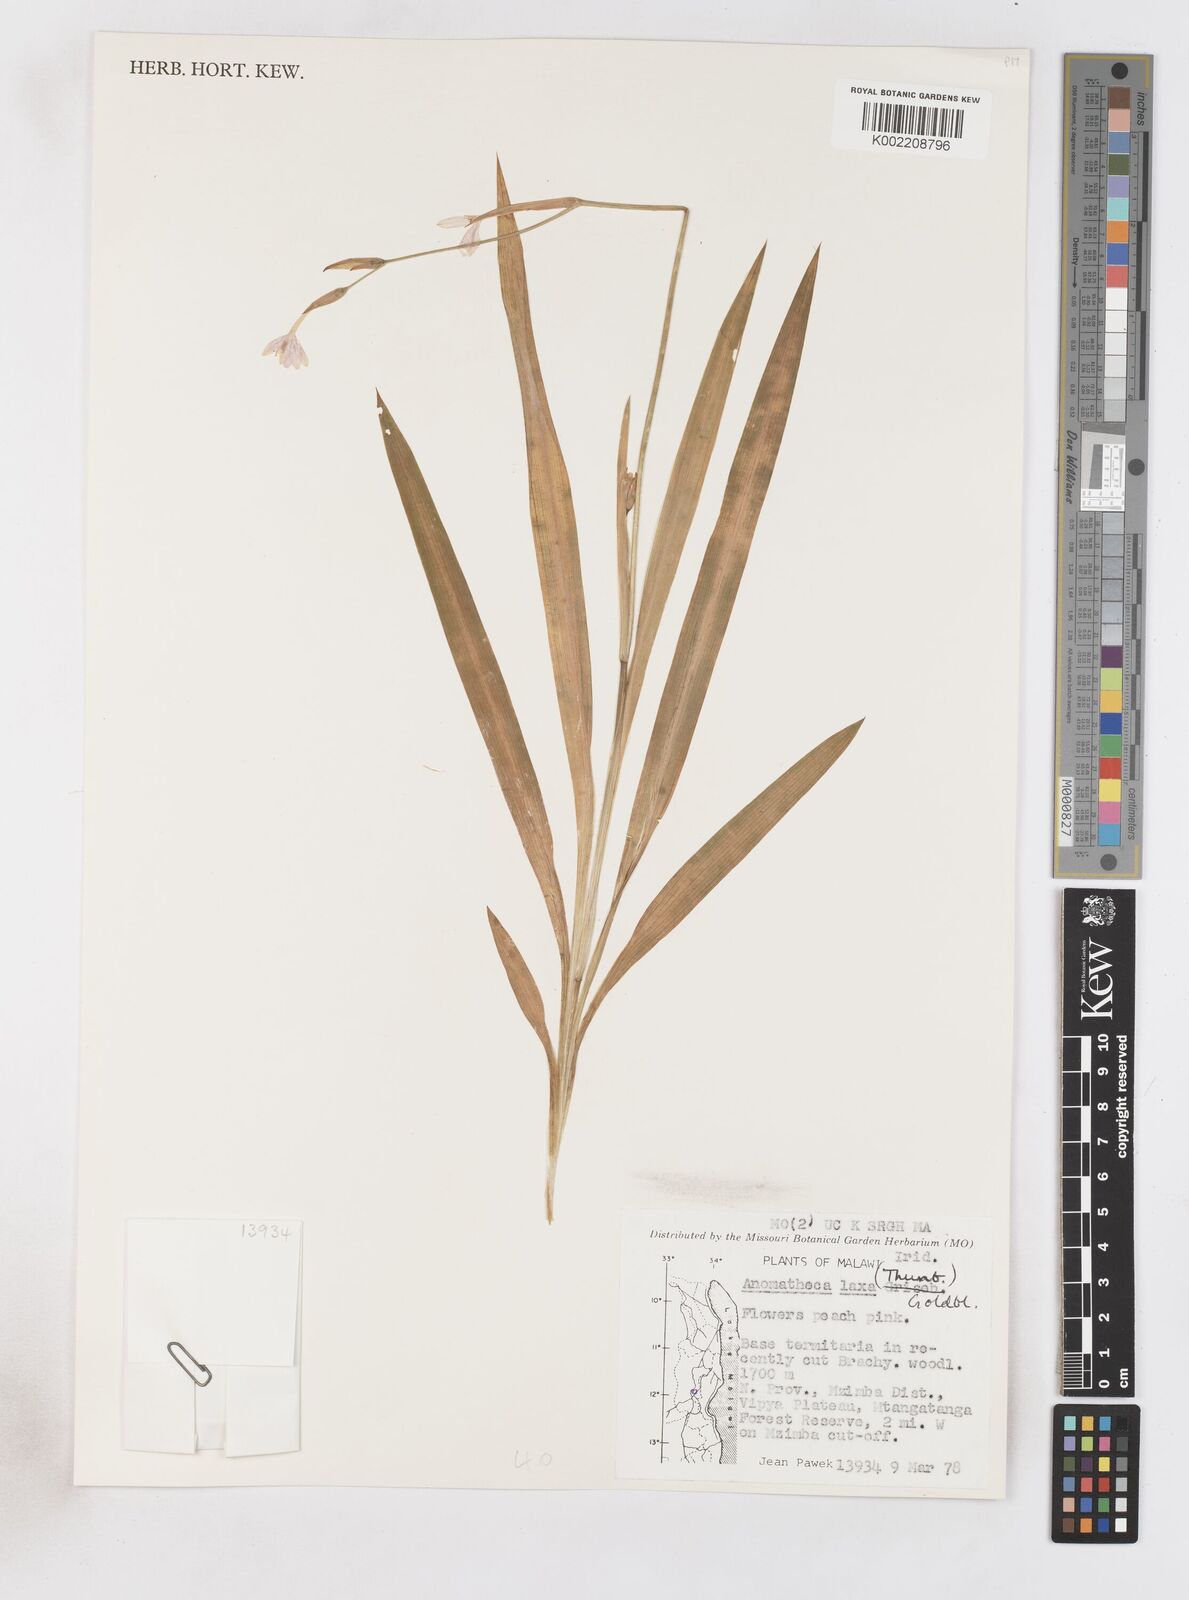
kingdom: Plantae
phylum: Tracheophyta
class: Liliopsida
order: Asparagales
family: Iridaceae
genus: Freesia
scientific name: Freesia laxa
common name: False freesia
